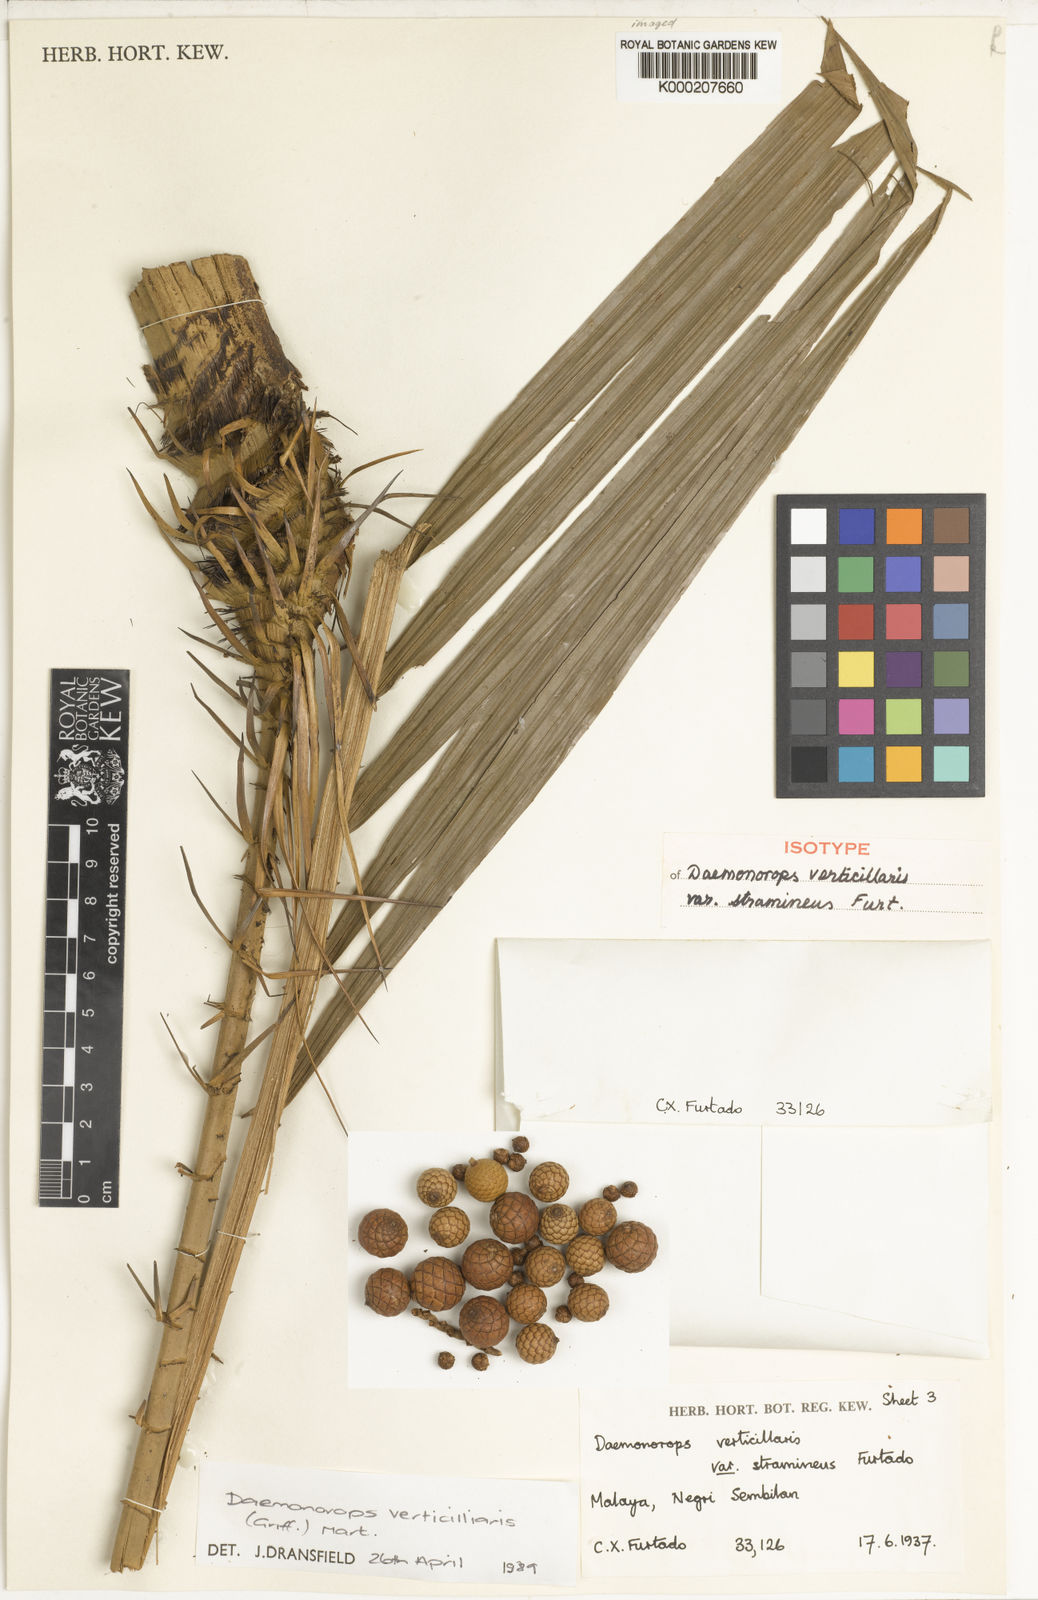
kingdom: Plantae
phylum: Tracheophyta
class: Liliopsida
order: Arecales
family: Arecaceae
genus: Calamus
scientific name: Calamus verticillaris
